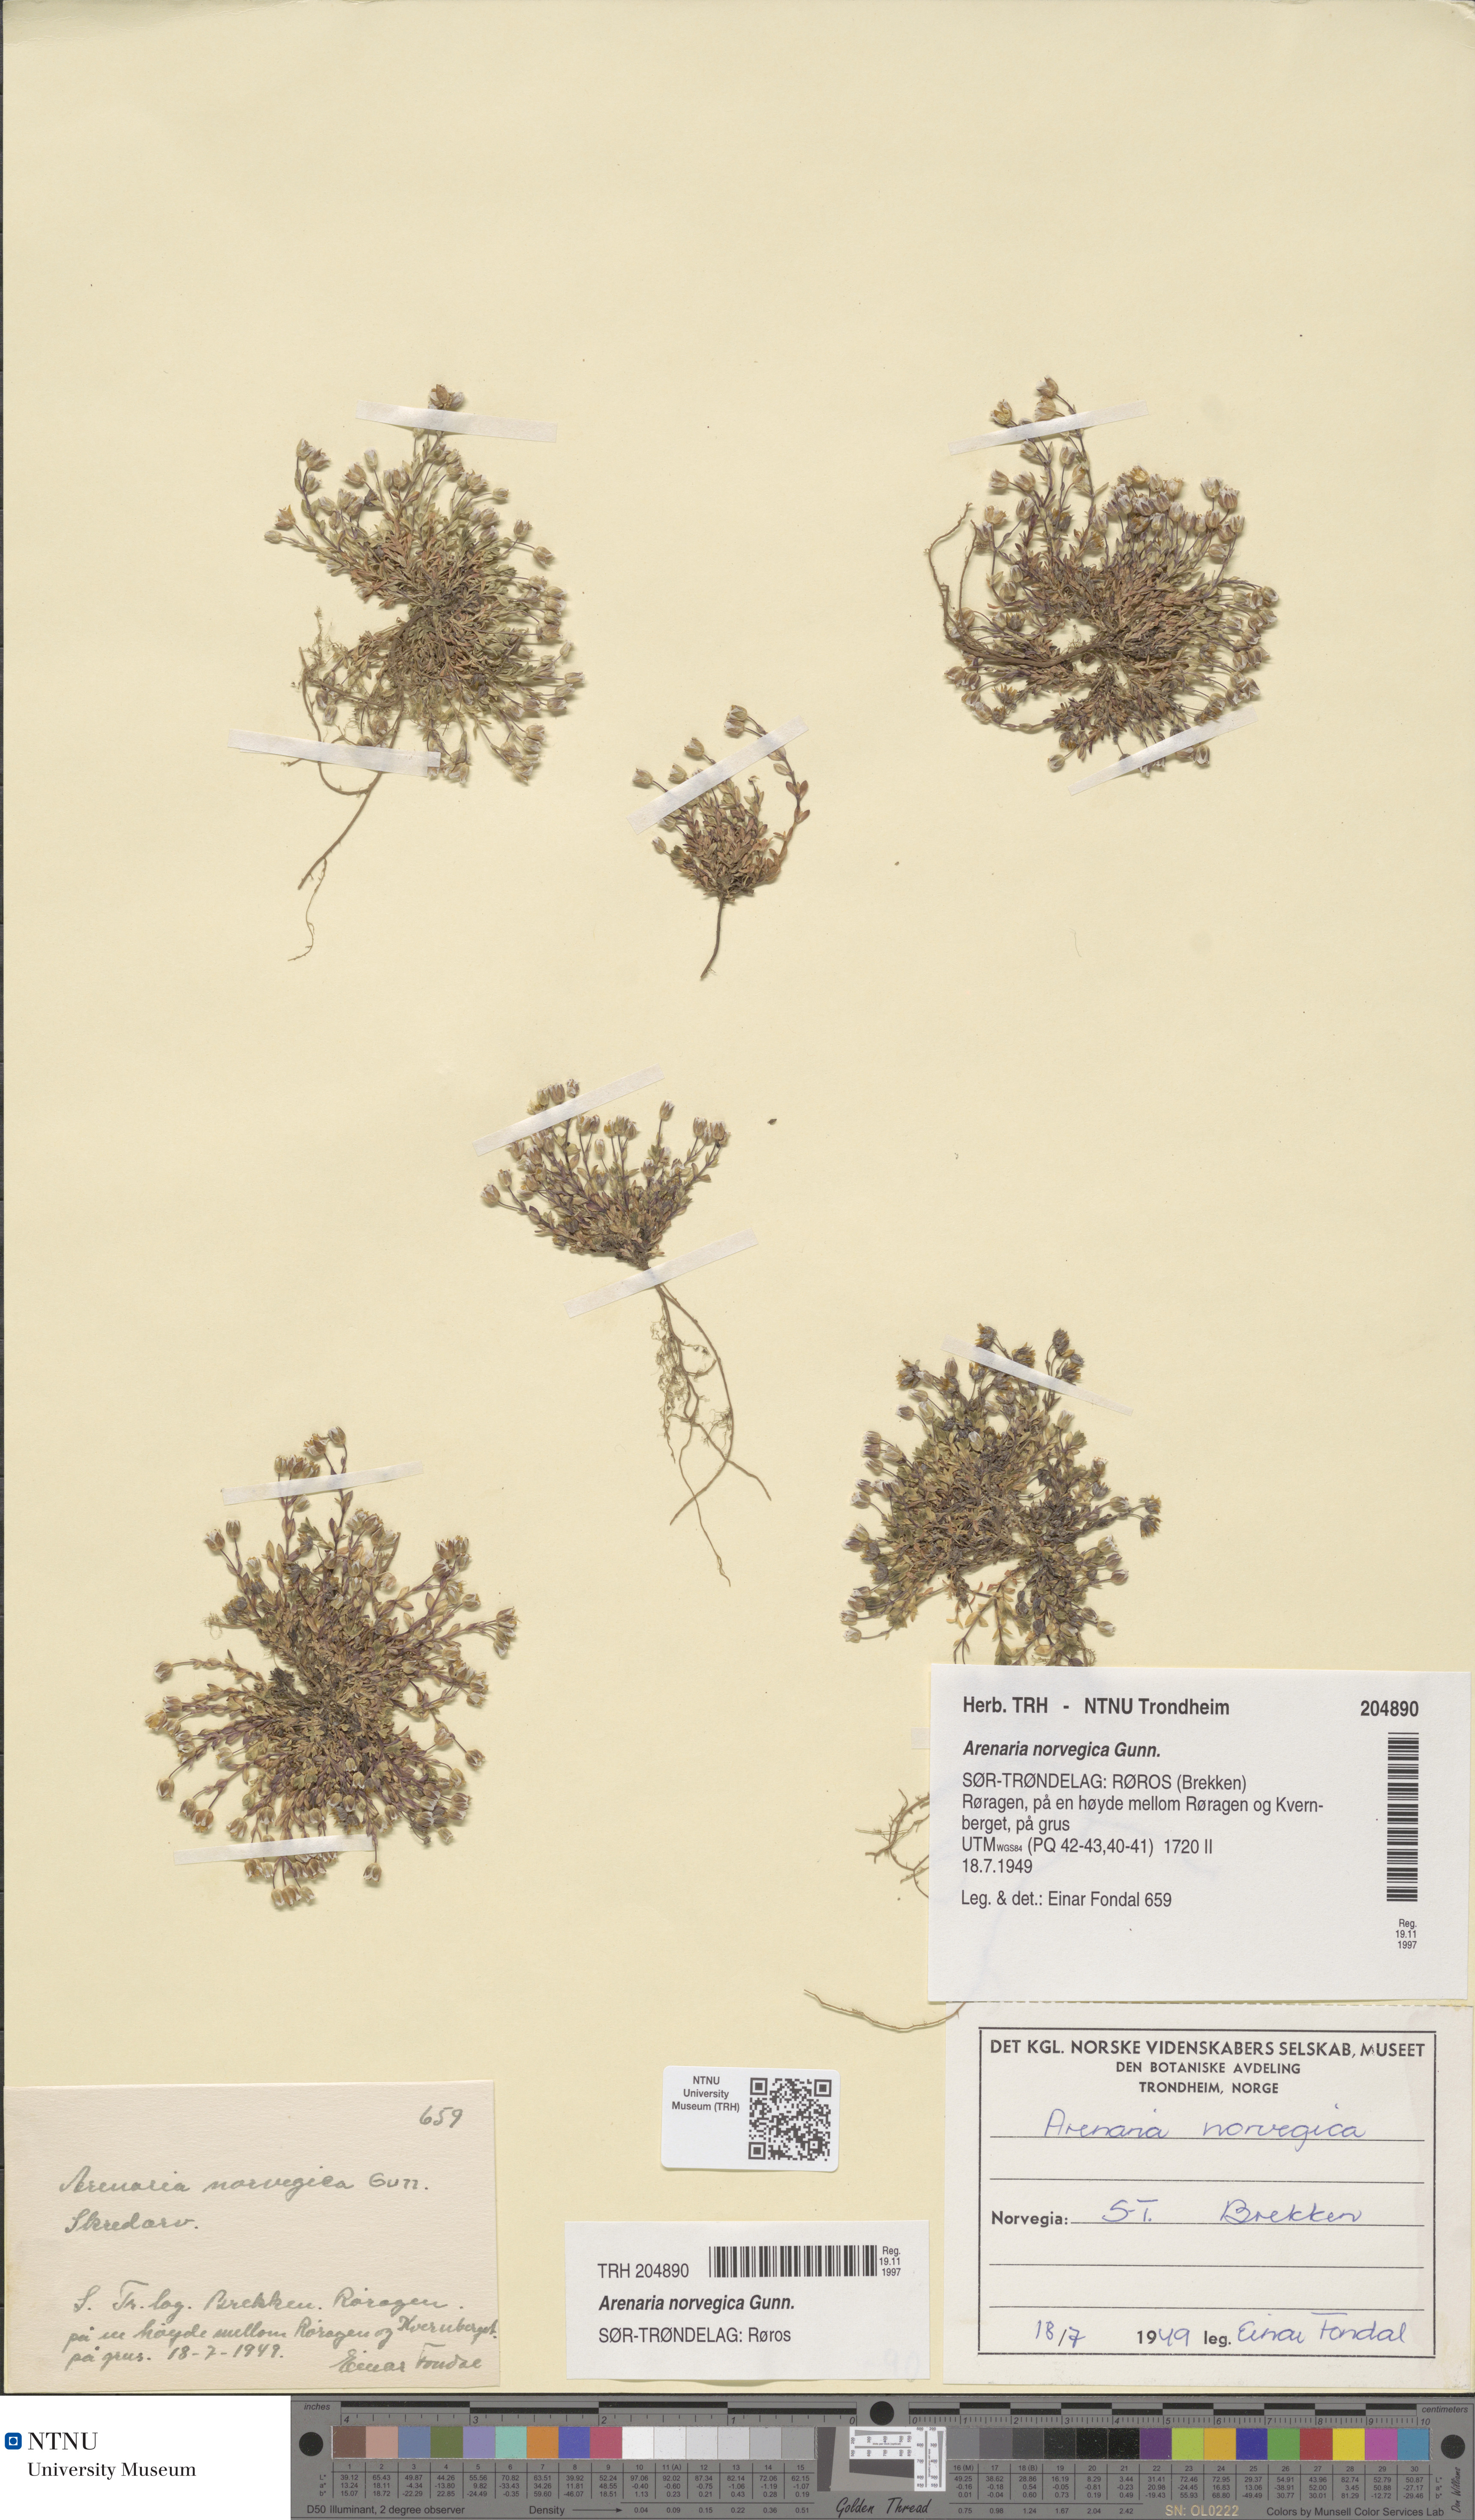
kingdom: Plantae
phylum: Tracheophyta
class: Magnoliopsida
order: Caryophyllales
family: Caryophyllaceae
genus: Arenaria
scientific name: Arenaria norvegica
